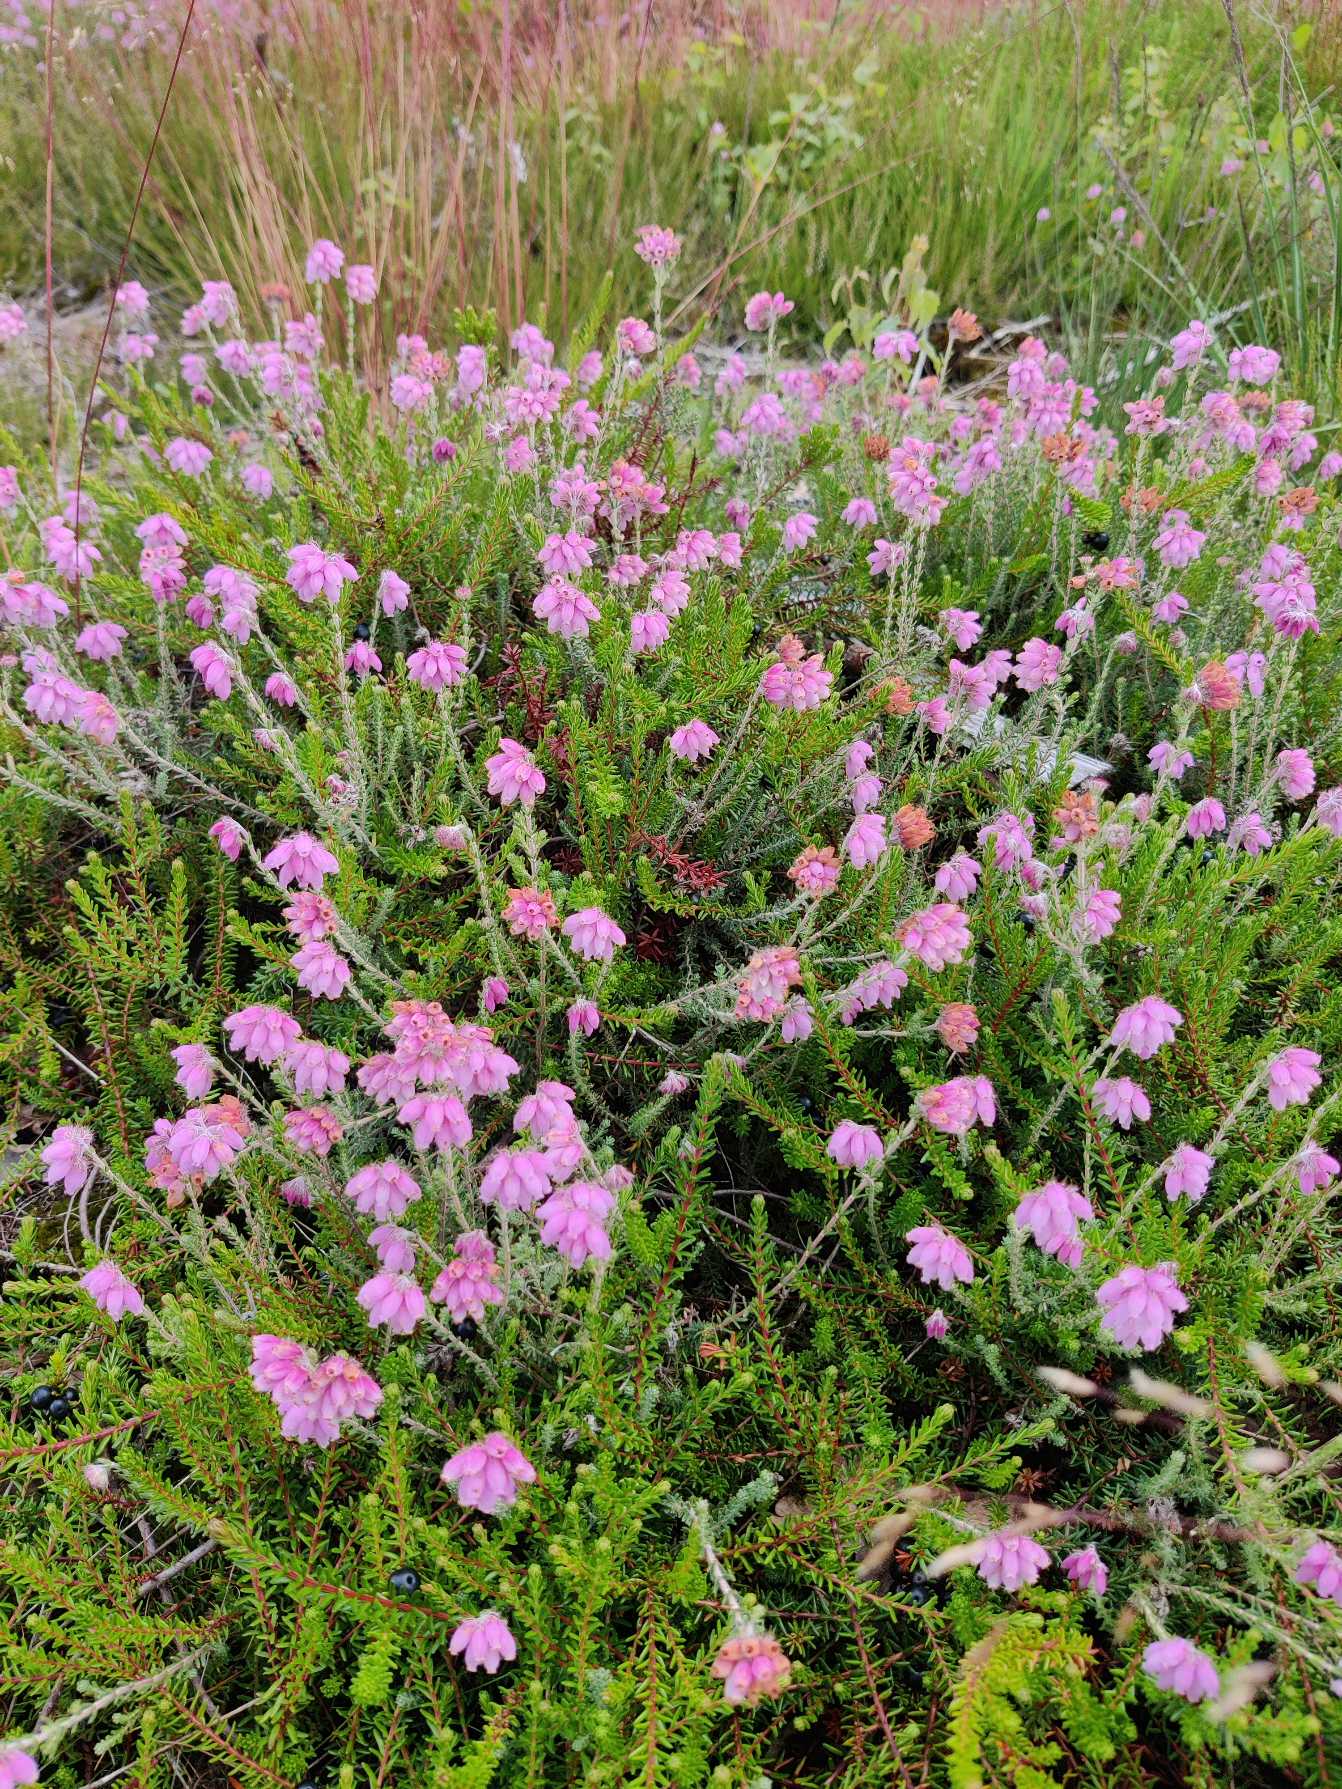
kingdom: Plantae
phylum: Tracheophyta
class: Magnoliopsida
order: Ericales
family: Ericaceae
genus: Erica
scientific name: Erica tetralix
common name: Klokkelyng
